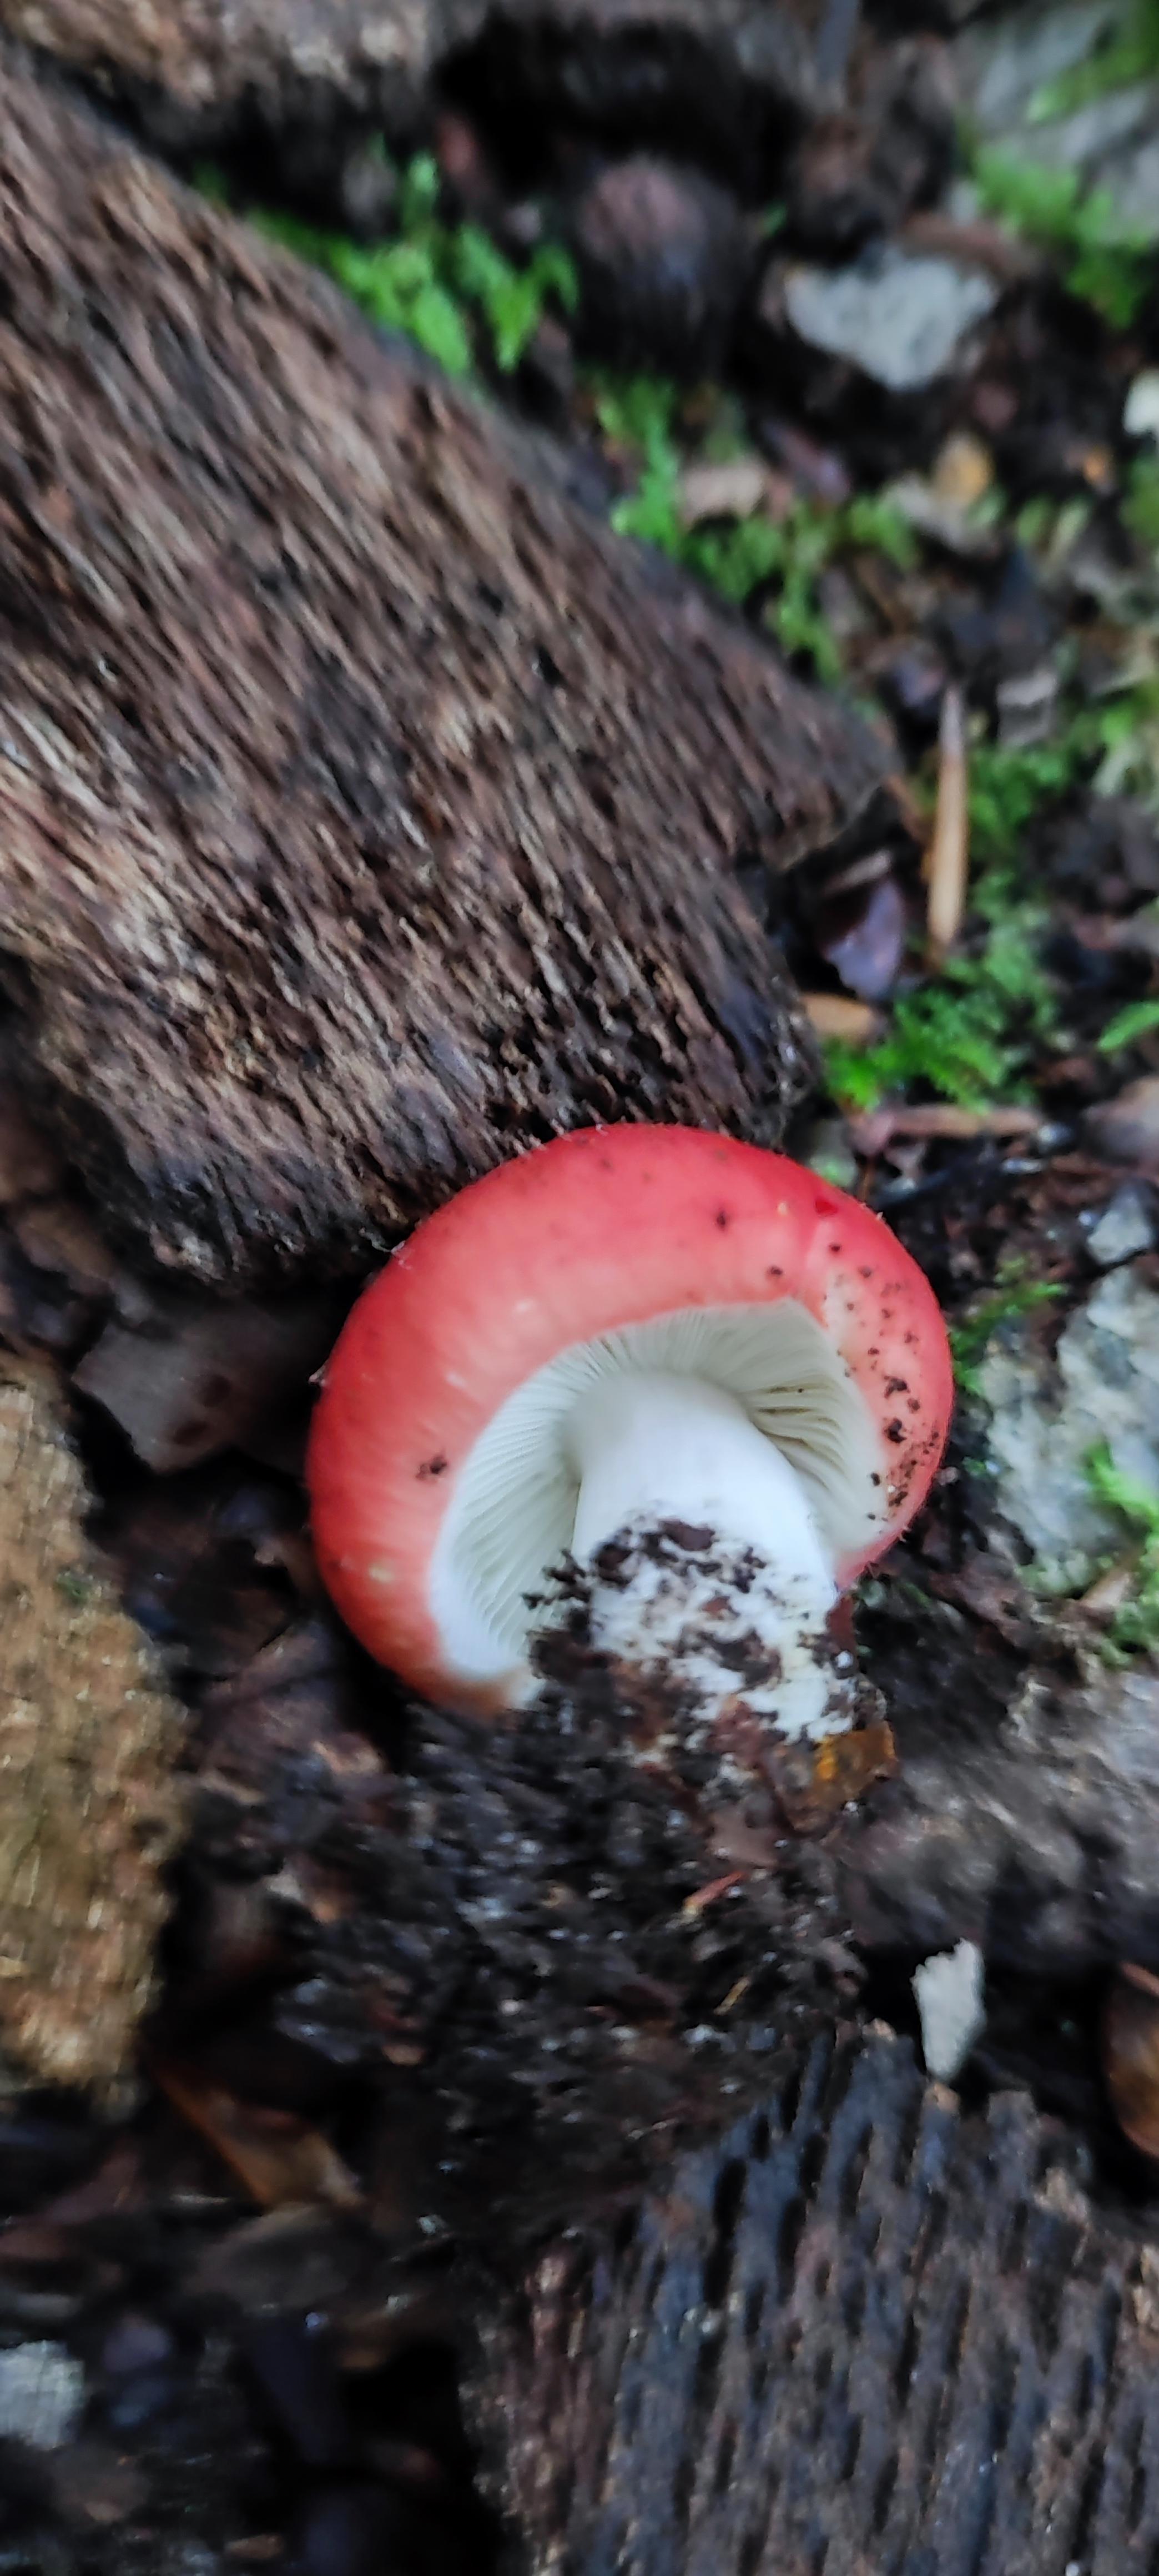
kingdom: Fungi
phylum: Basidiomycota
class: Agaricomycetes
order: Russulales
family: Russulaceae
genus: Russula
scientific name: Russula nobilis
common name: lille gift-skørhat
